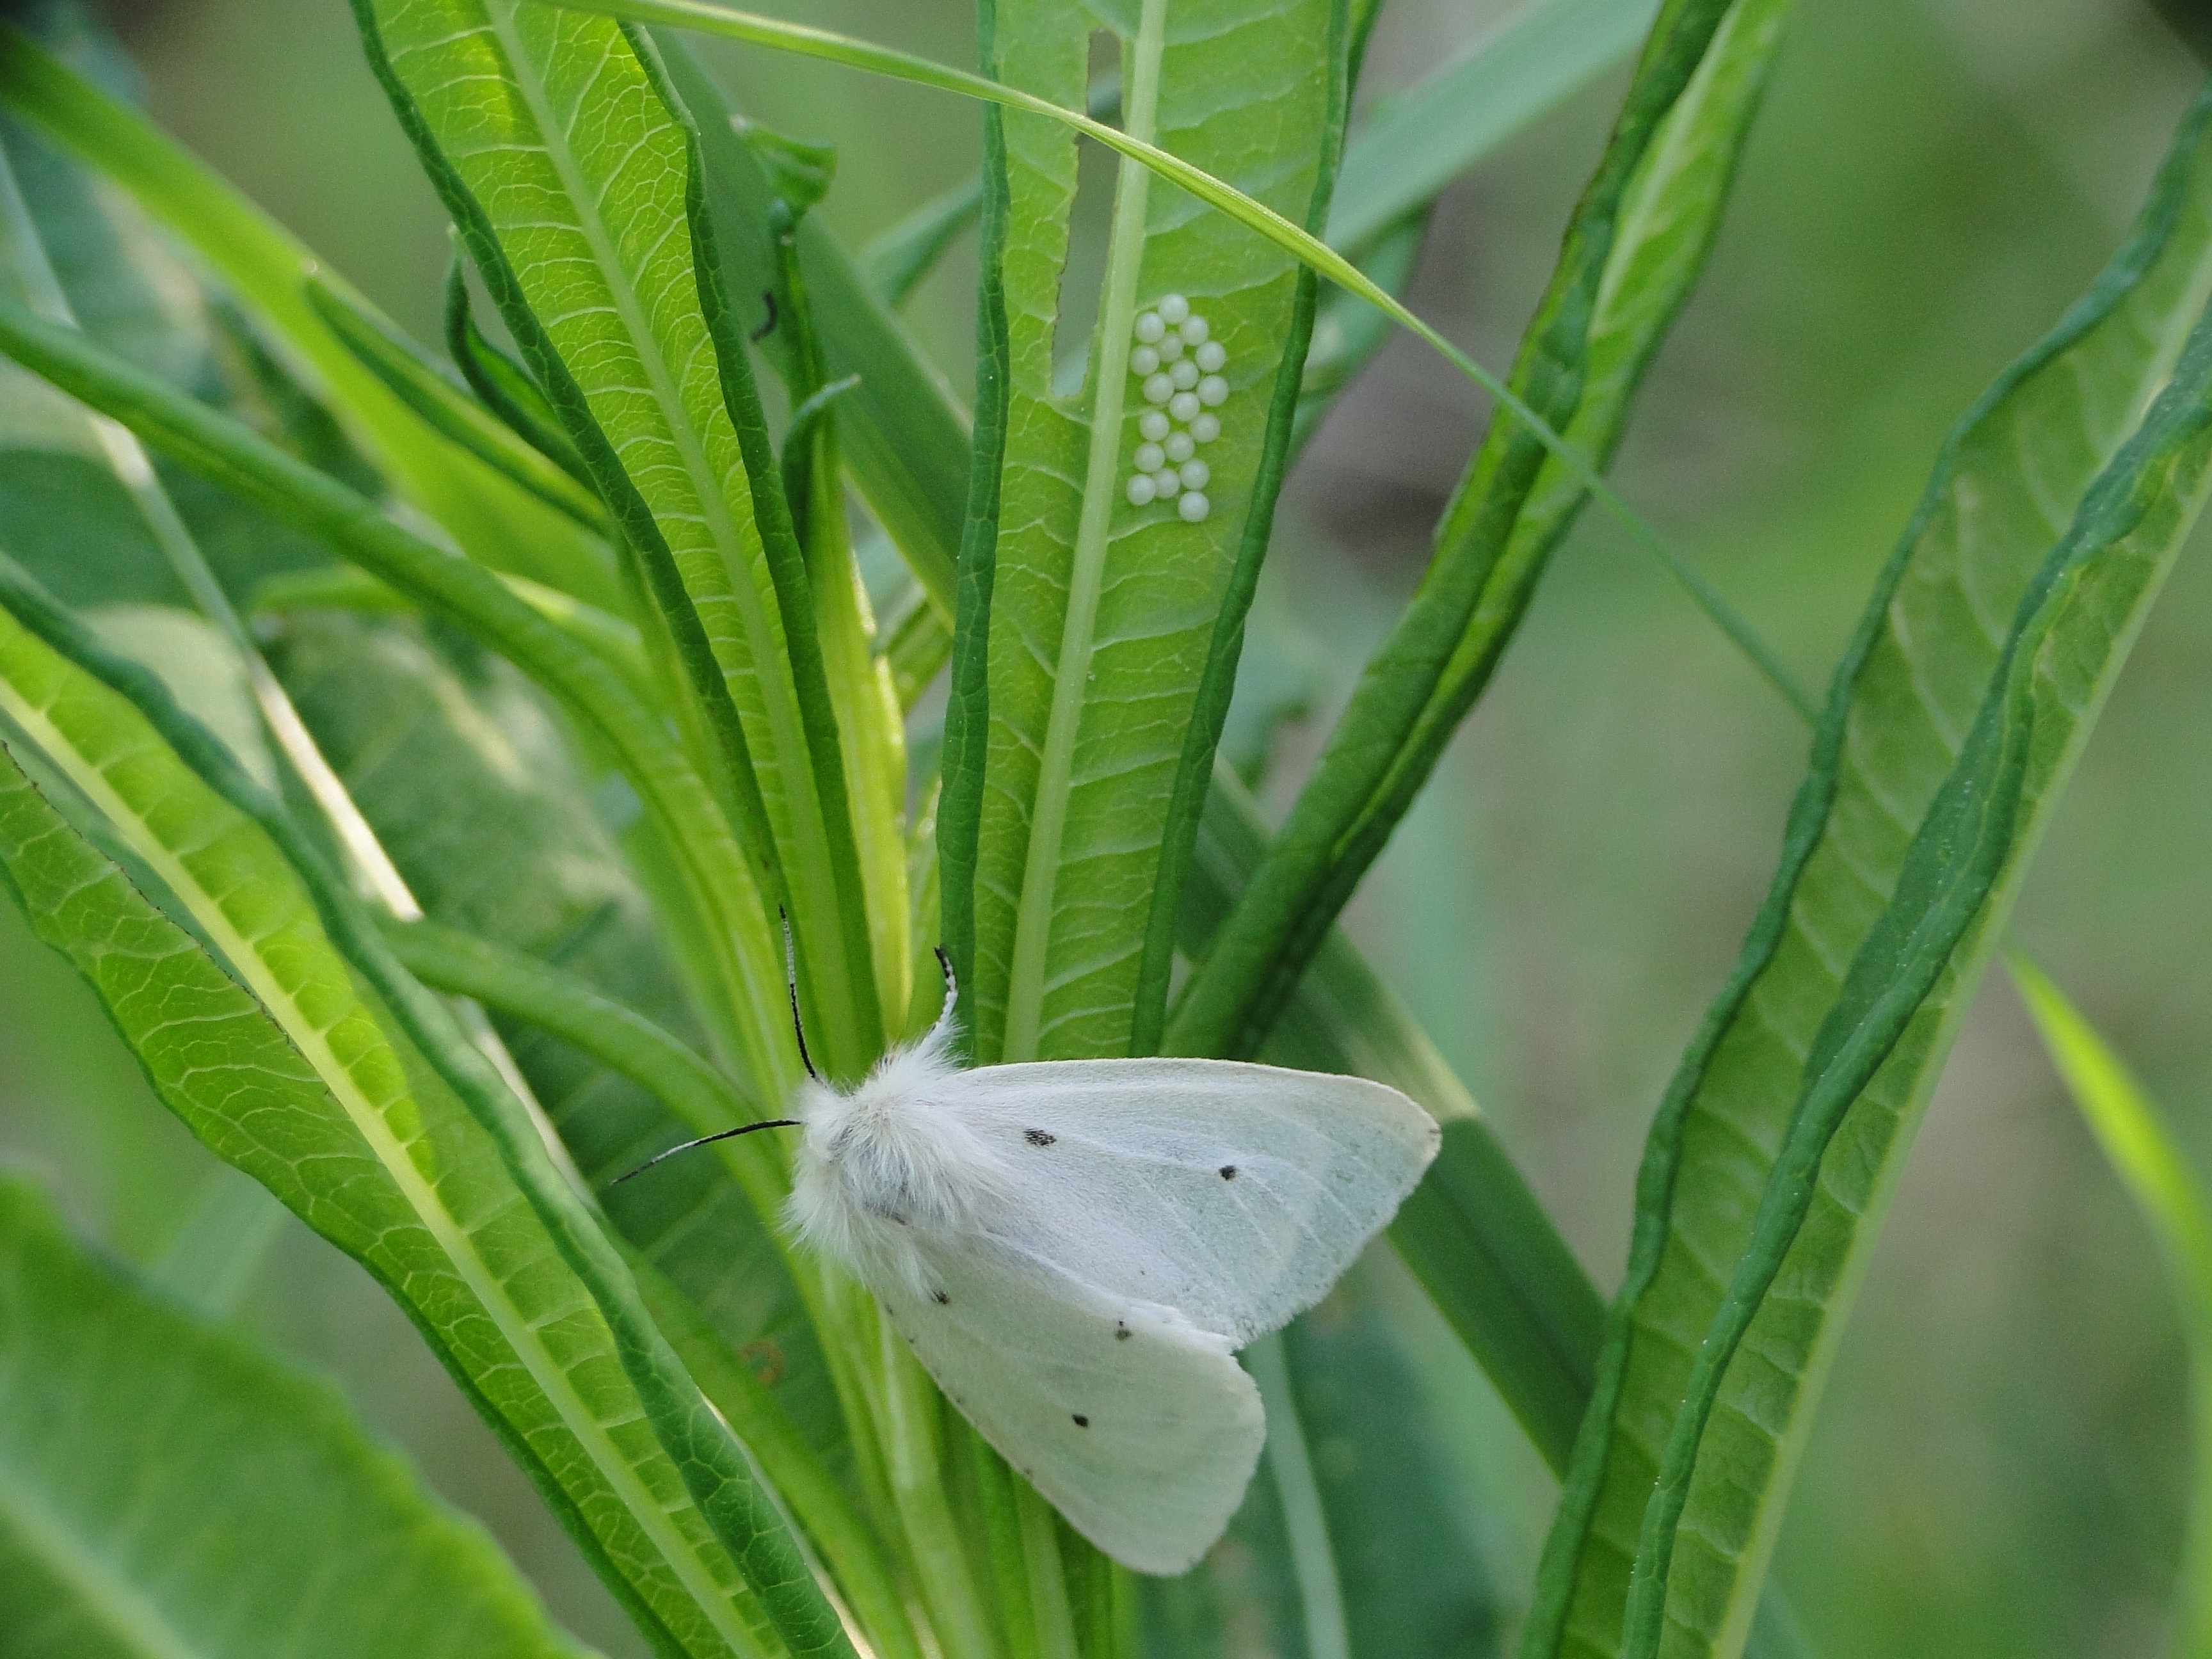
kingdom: Animalia
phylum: Arthropoda
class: Insecta
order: Lepidoptera
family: Erebidae
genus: Diaphora
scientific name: Diaphora mendica
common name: Muslin moth
